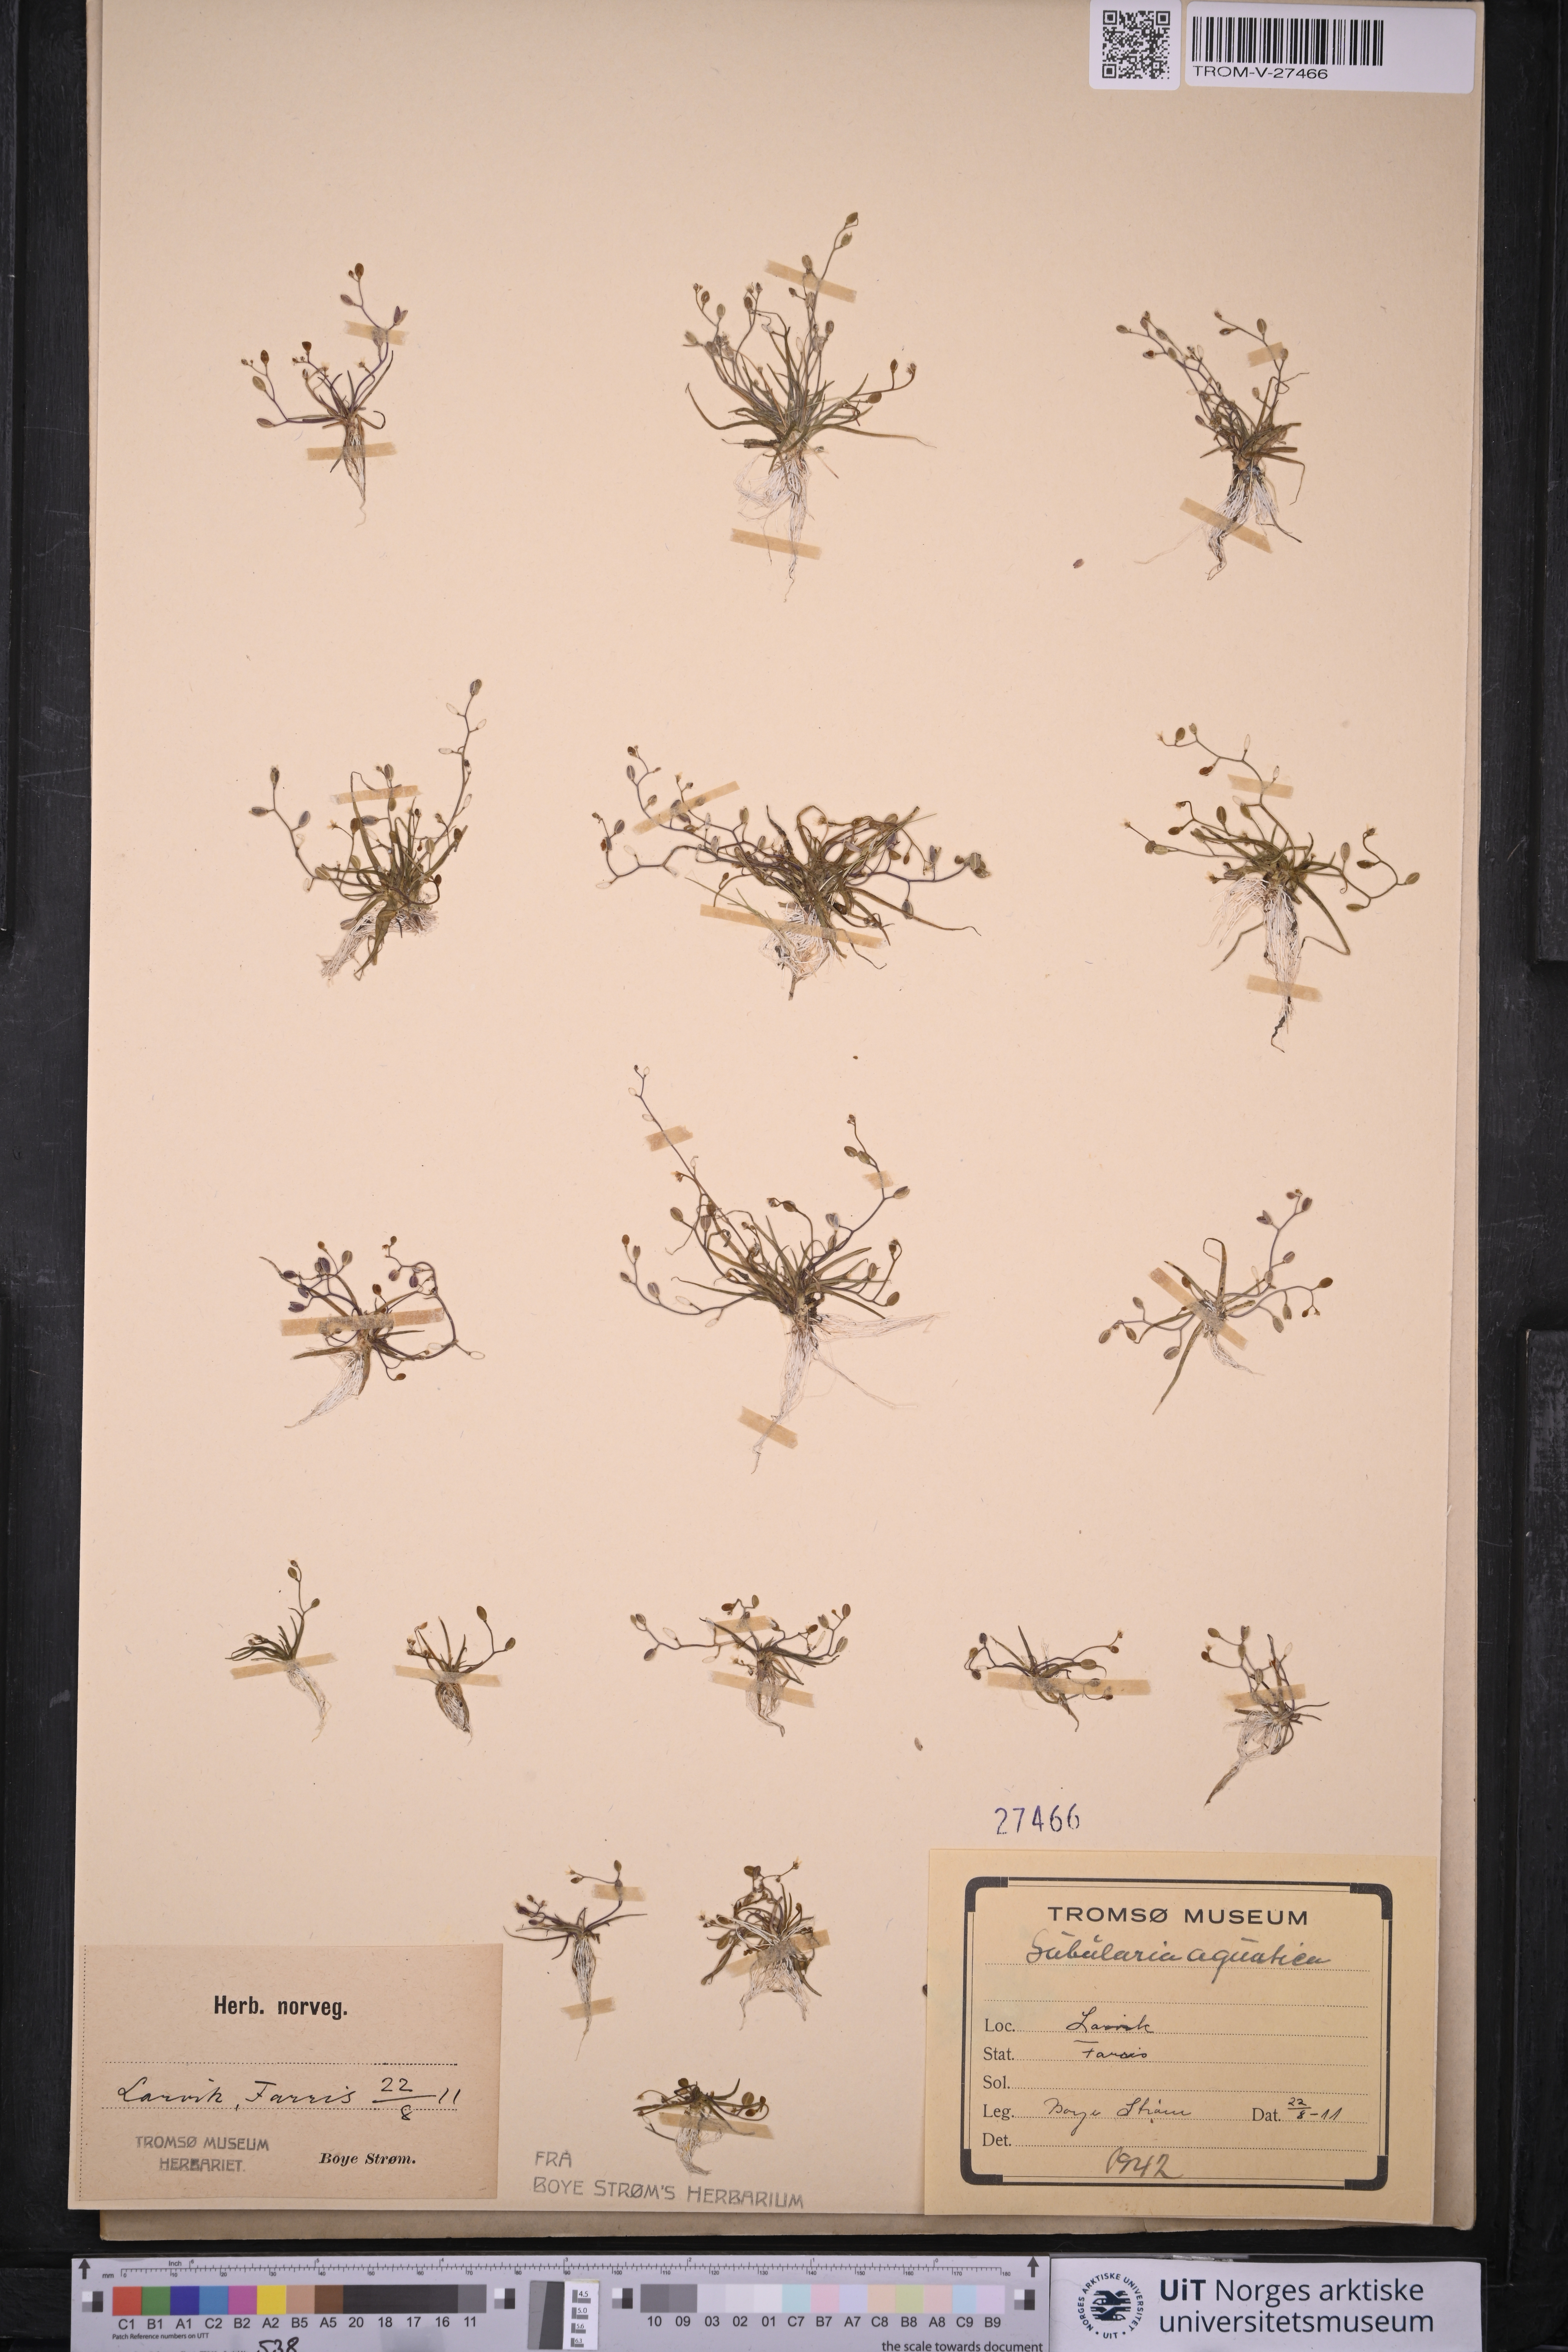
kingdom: Plantae
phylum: Tracheophyta
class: Magnoliopsida
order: Brassicales
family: Brassicaceae
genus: Subularia
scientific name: Subularia aquatica
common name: Awlwort
